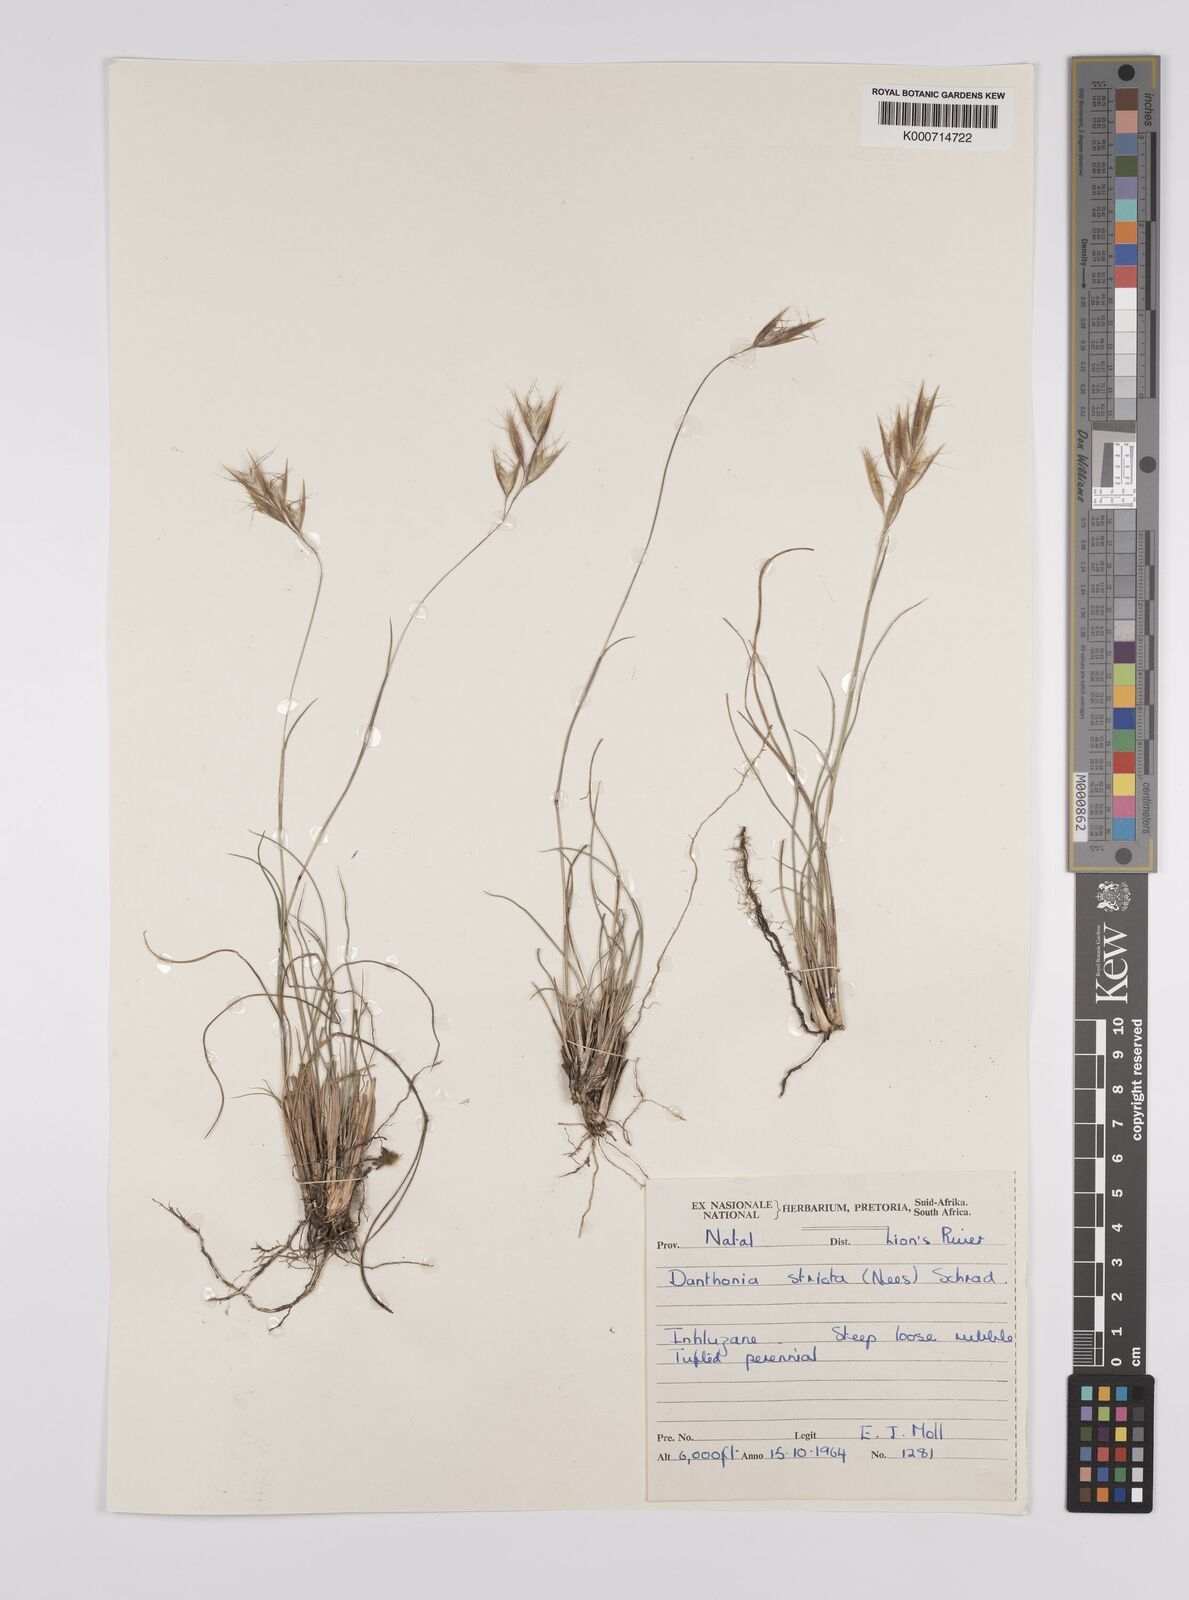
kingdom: Plantae
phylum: Tracheophyta
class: Liliopsida
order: Poales
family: Poaceae
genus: Rytidosperma
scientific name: Rytidosperma
